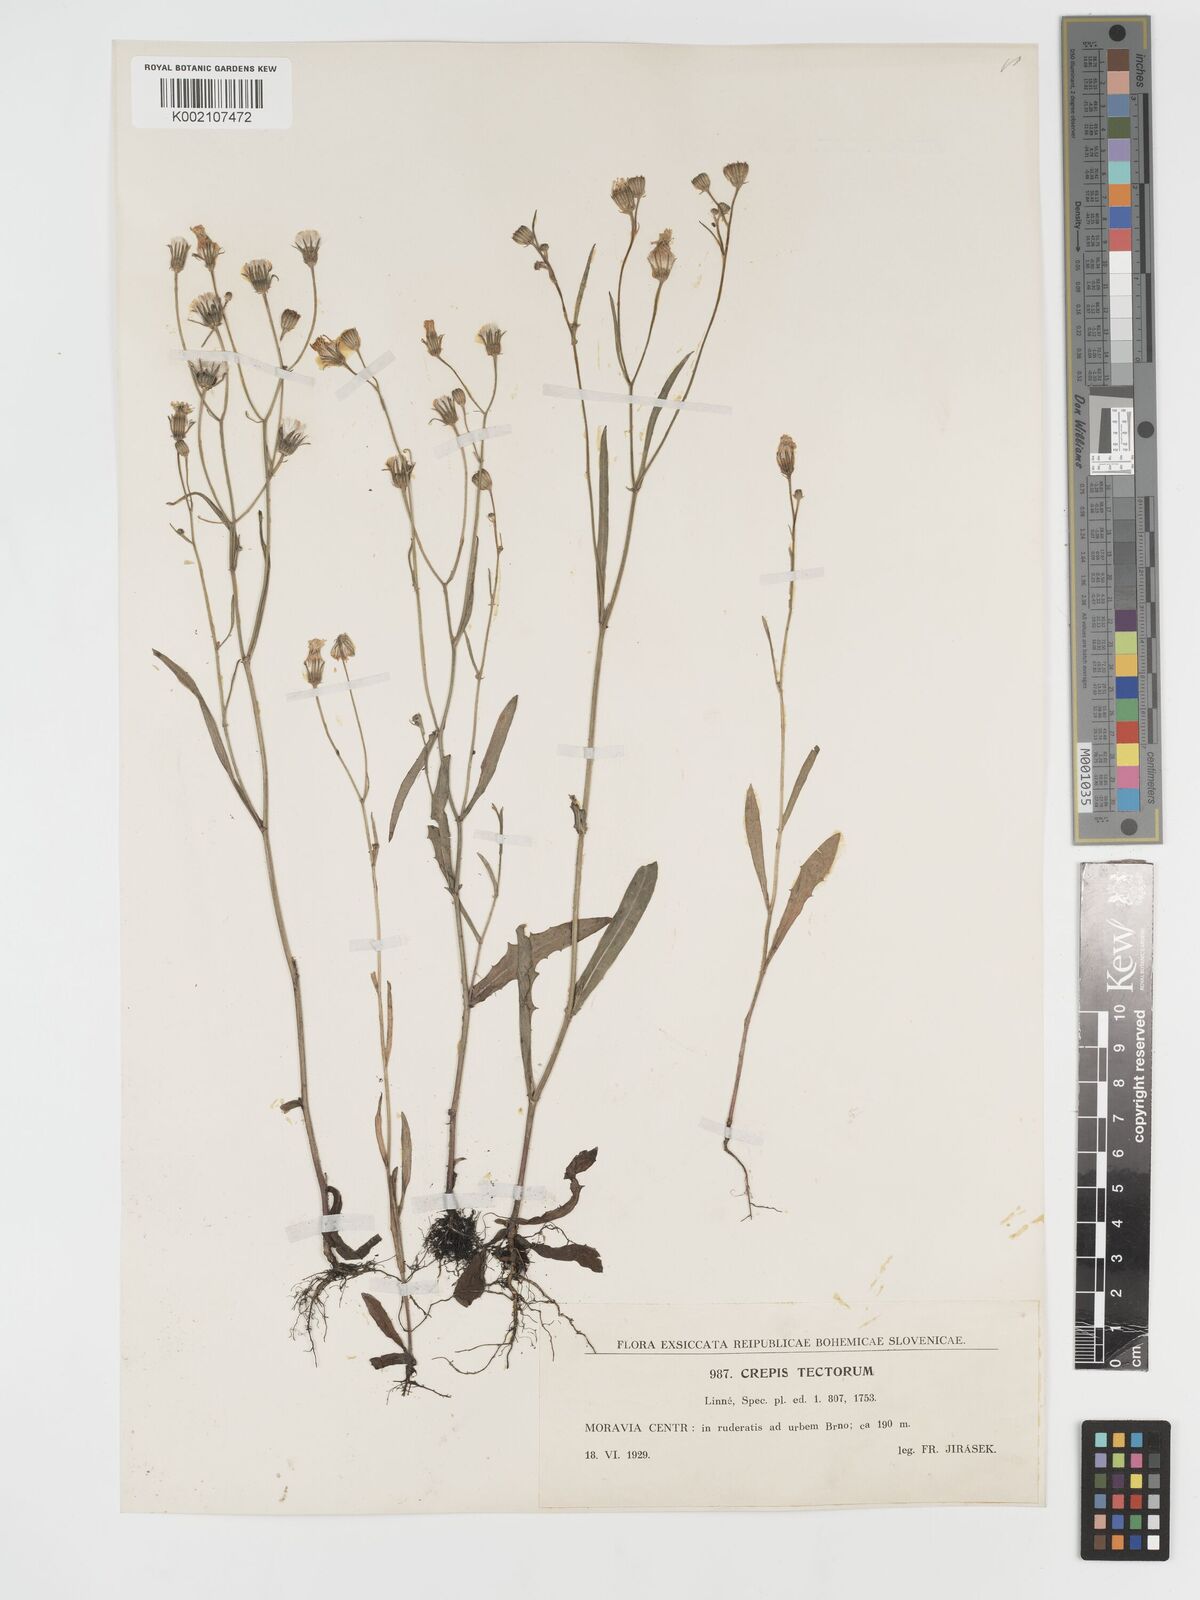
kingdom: Plantae
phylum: Tracheophyta
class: Magnoliopsida
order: Asterales
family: Asteraceae
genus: Crepis
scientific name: Crepis tectorum
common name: Narrow-leaved hawk's-beard
